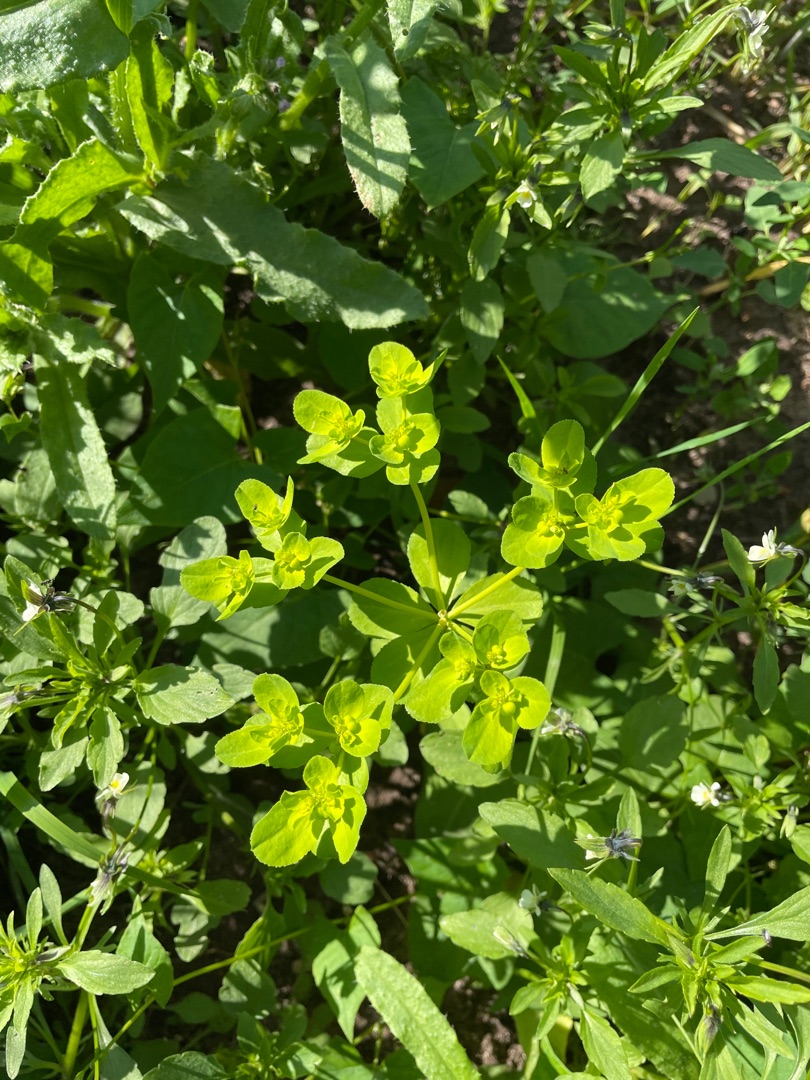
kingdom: Plantae
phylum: Tracheophyta
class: Magnoliopsida
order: Malpighiales
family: Euphorbiaceae
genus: Euphorbia
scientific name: Euphorbia helioscopia
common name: Skærm-vortemælk
